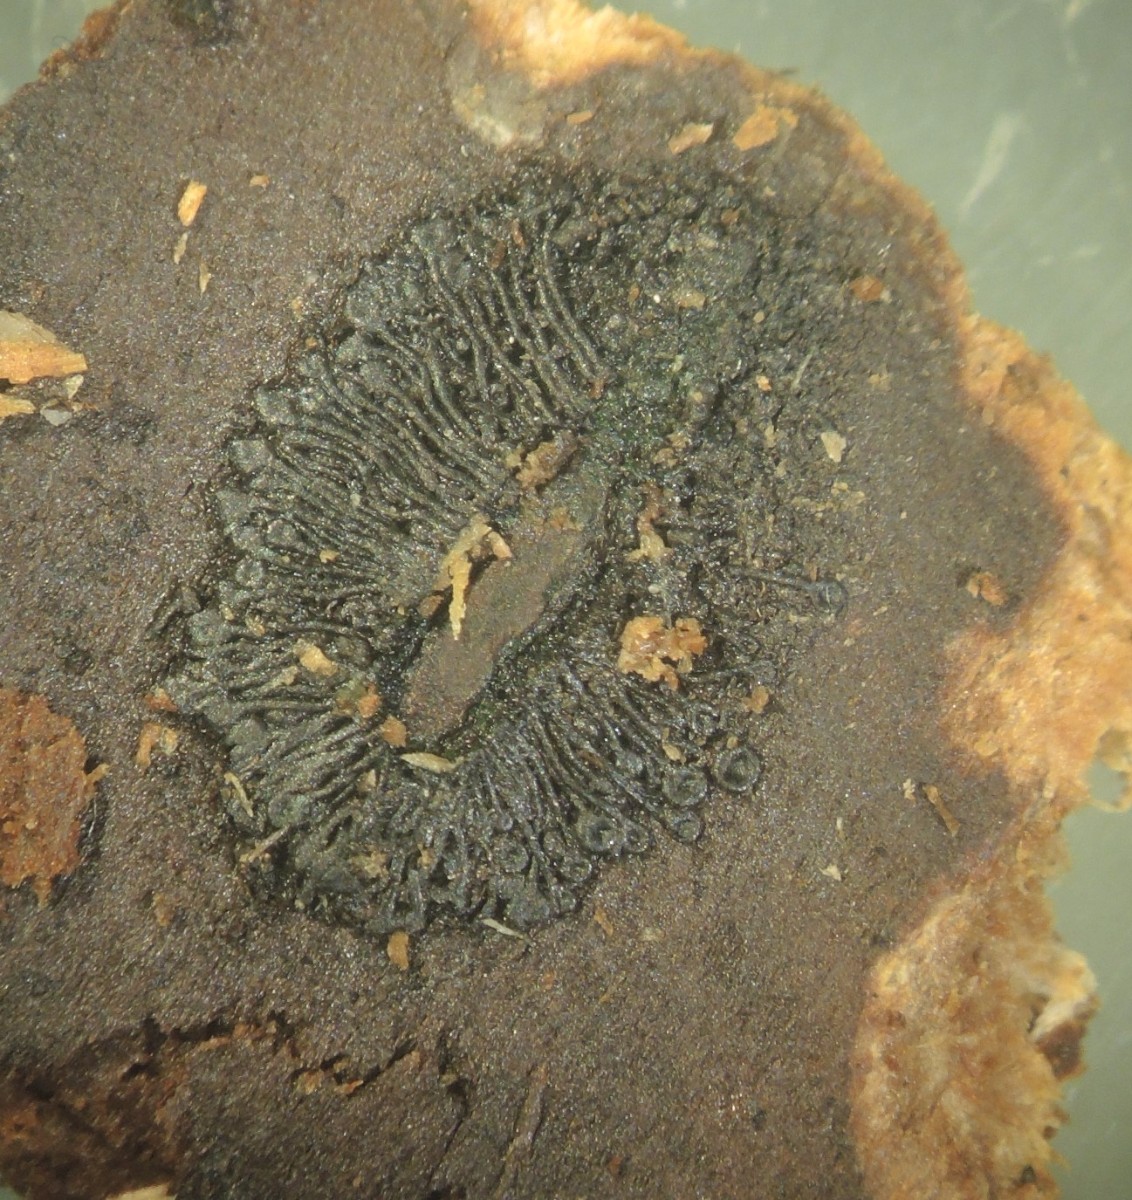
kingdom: Fungi
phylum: Ascomycota
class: Sordariomycetes
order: Calosphaeriales
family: Calosphaeriaceae
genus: Calosphaeria
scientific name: Calosphaeria pulchella
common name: smuk slyngkerne
